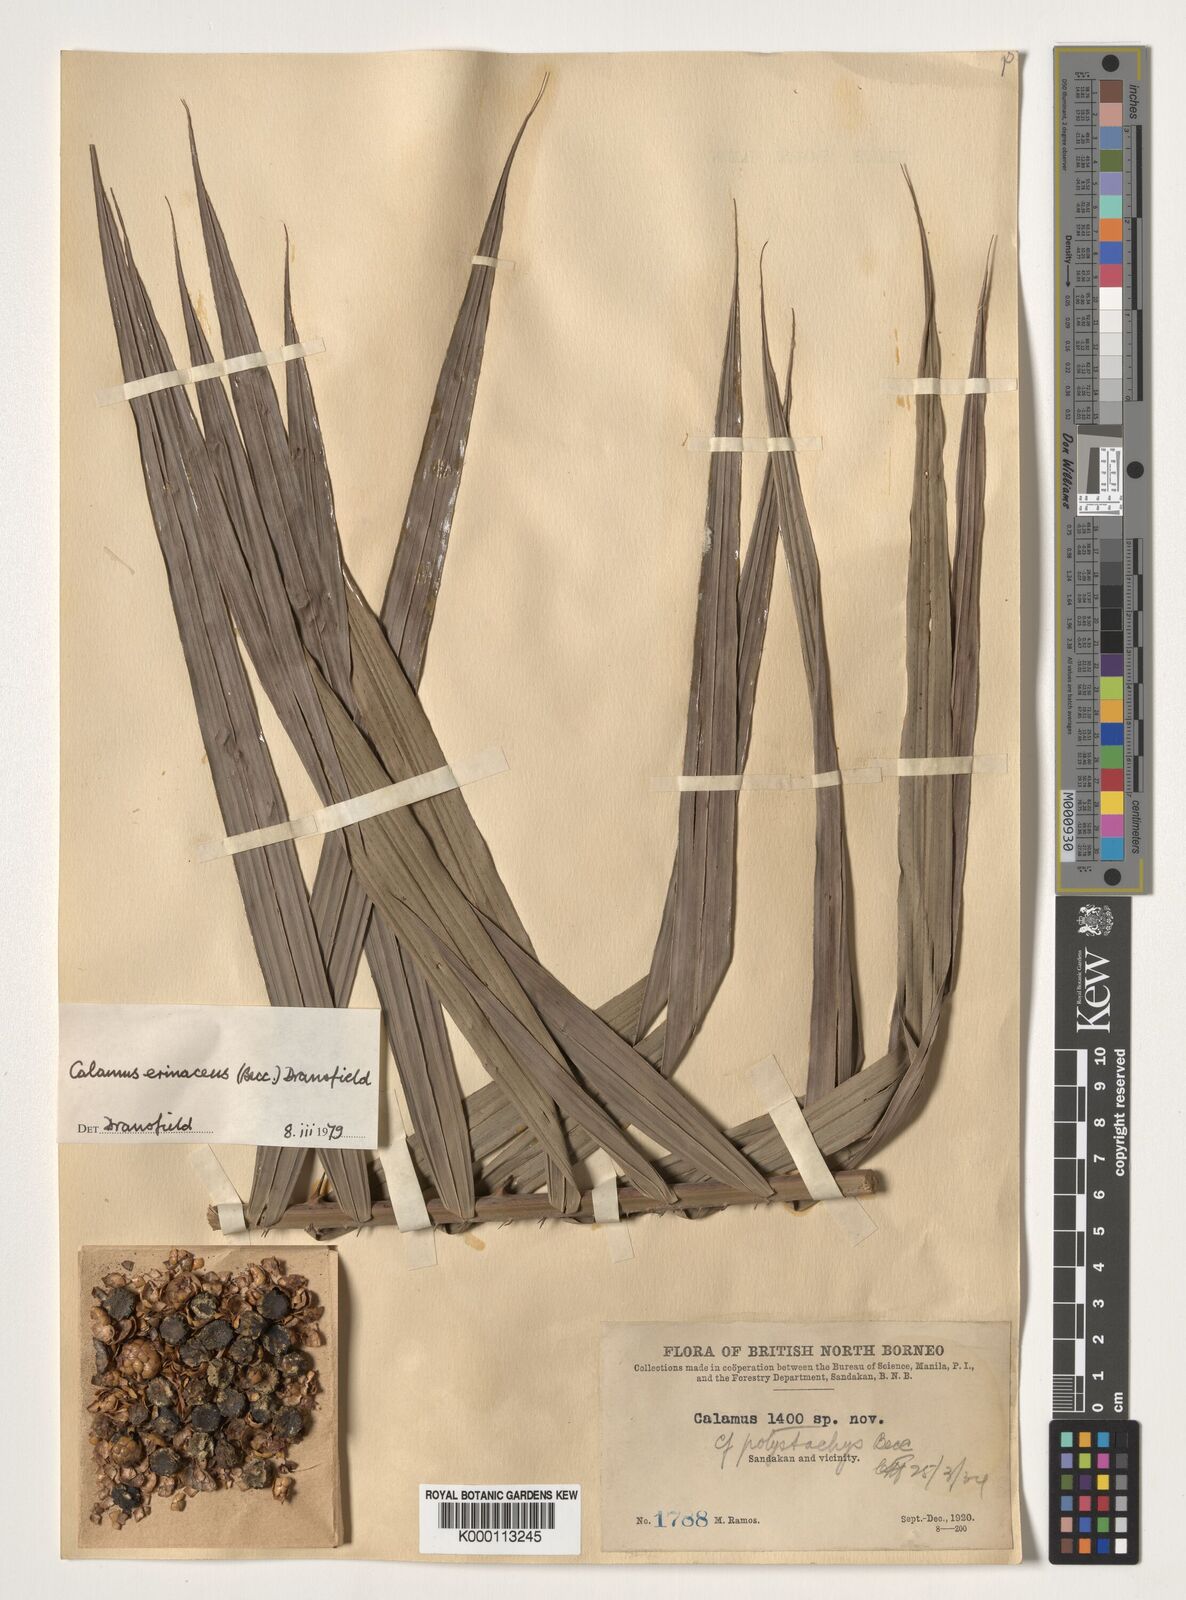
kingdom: Plantae
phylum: Tracheophyta
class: Liliopsida
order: Arecales
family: Arecaceae
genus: Calamus
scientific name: Calamus
